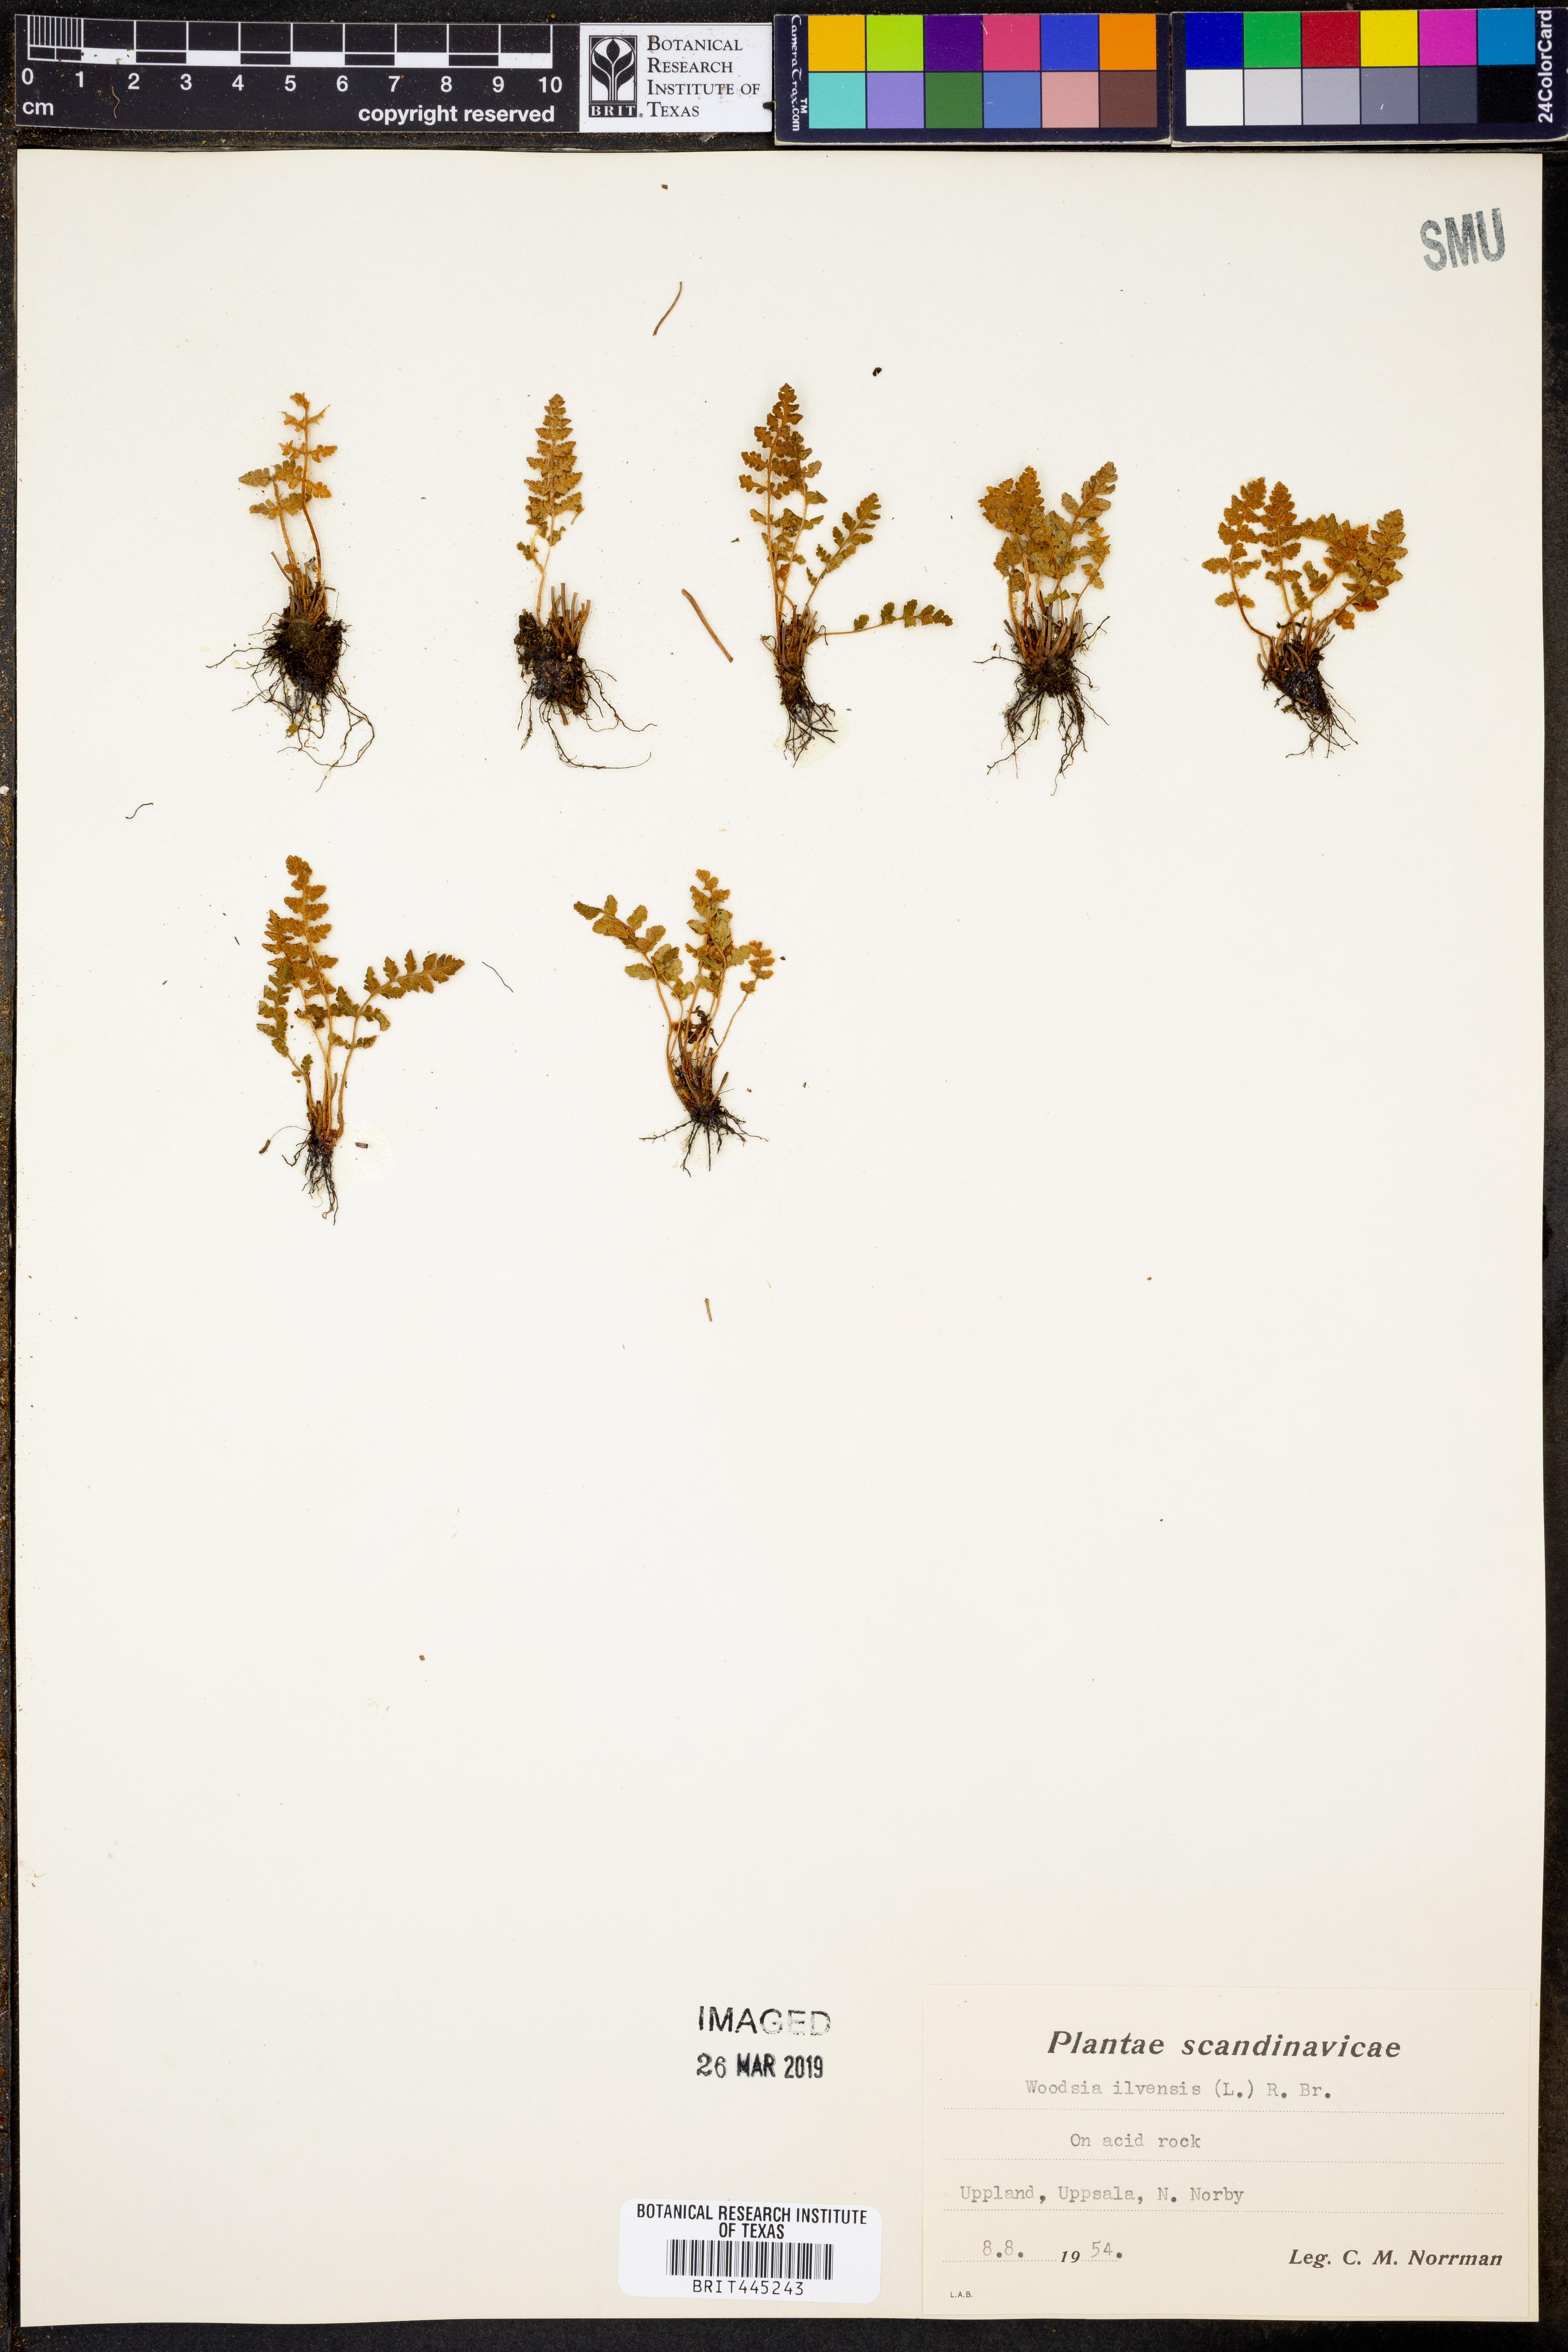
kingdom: Plantae
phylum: Tracheophyta
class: Polypodiopsida
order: Polypodiales
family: Woodsiaceae
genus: Woodsia
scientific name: Woodsia ilvensis
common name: Fragrant woodsia
